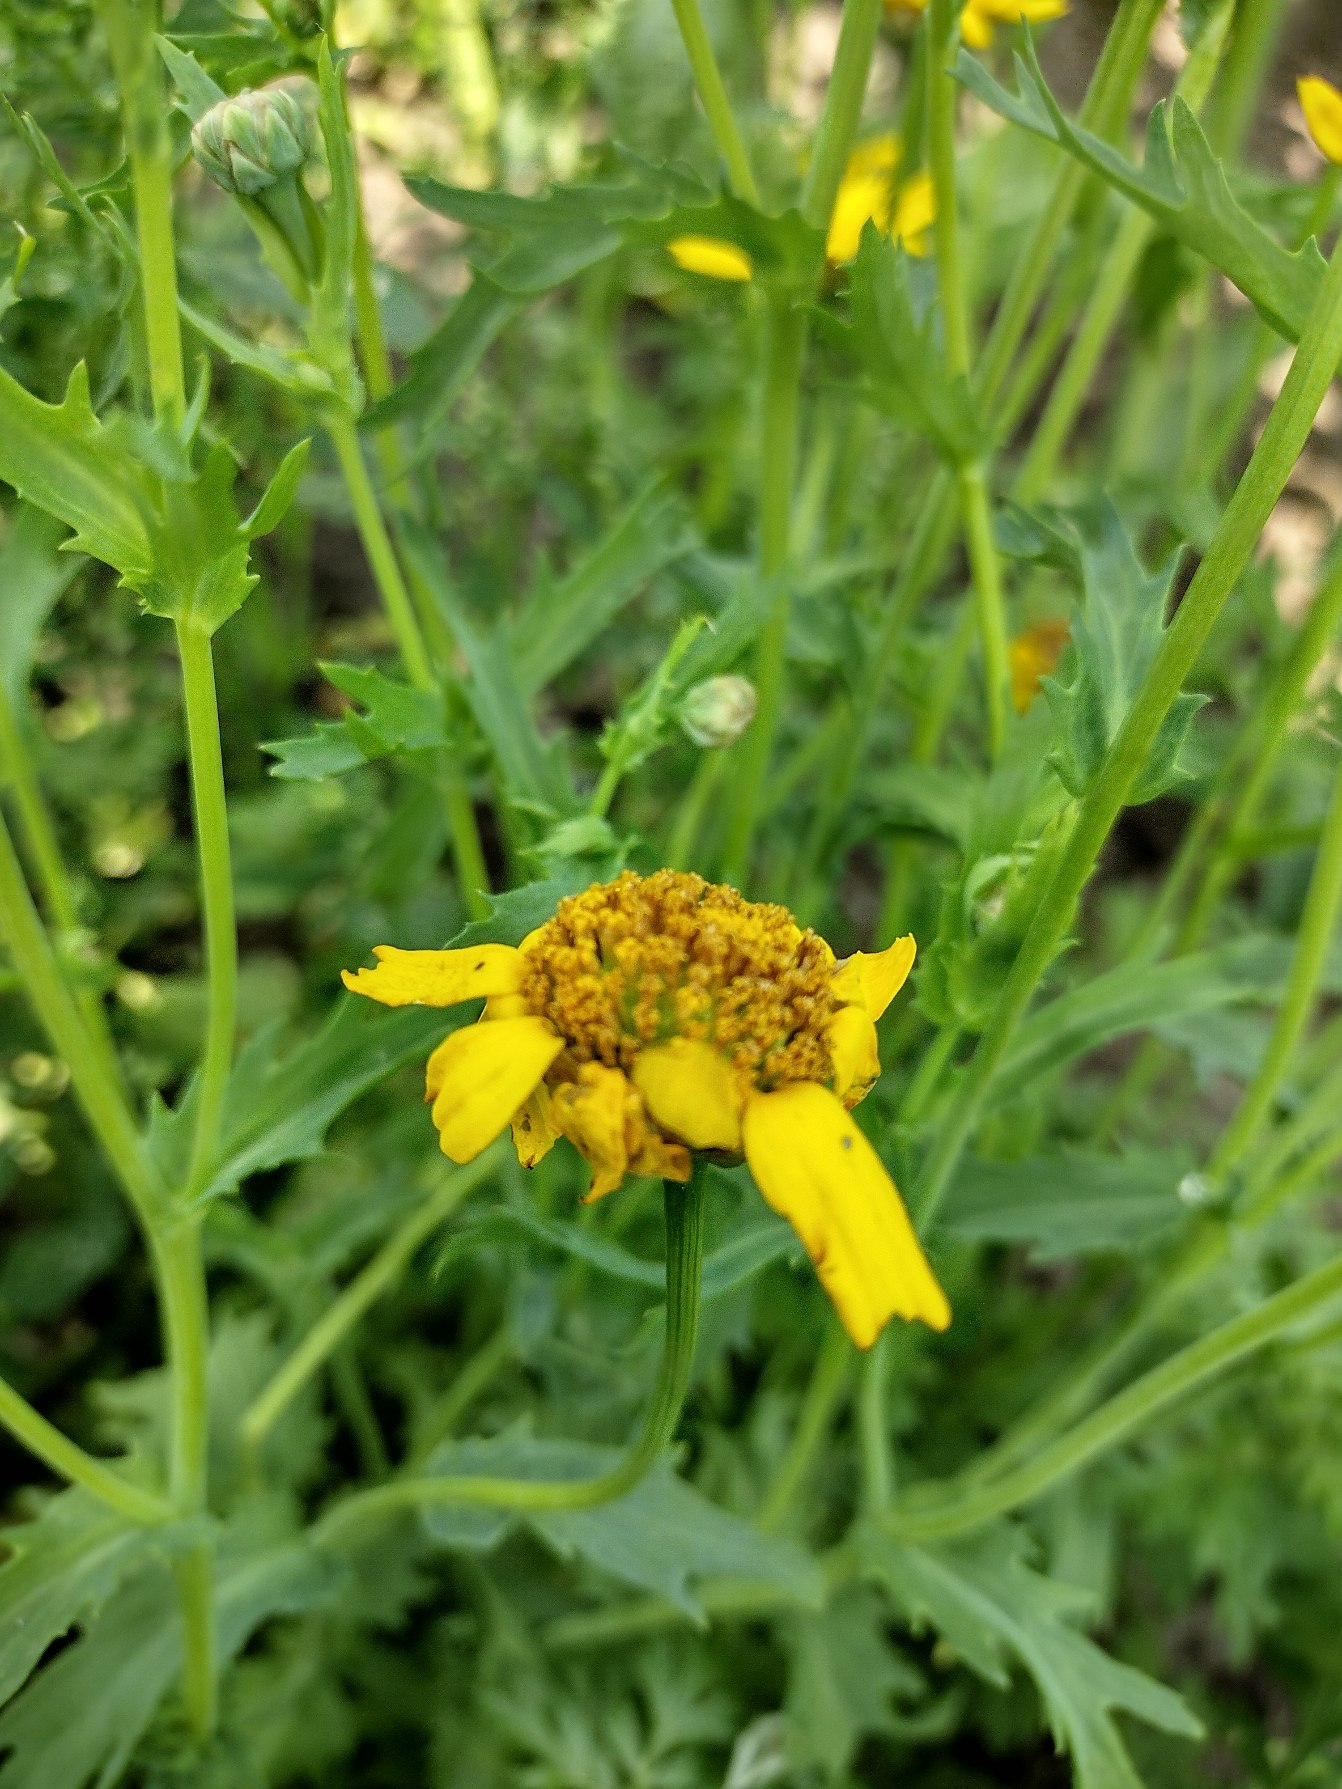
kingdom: Plantae
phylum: Tracheophyta
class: Magnoliopsida
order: Asterales
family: Asteraceae
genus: Glebionis
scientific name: Glebionis segetum
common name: Gul okseøje
